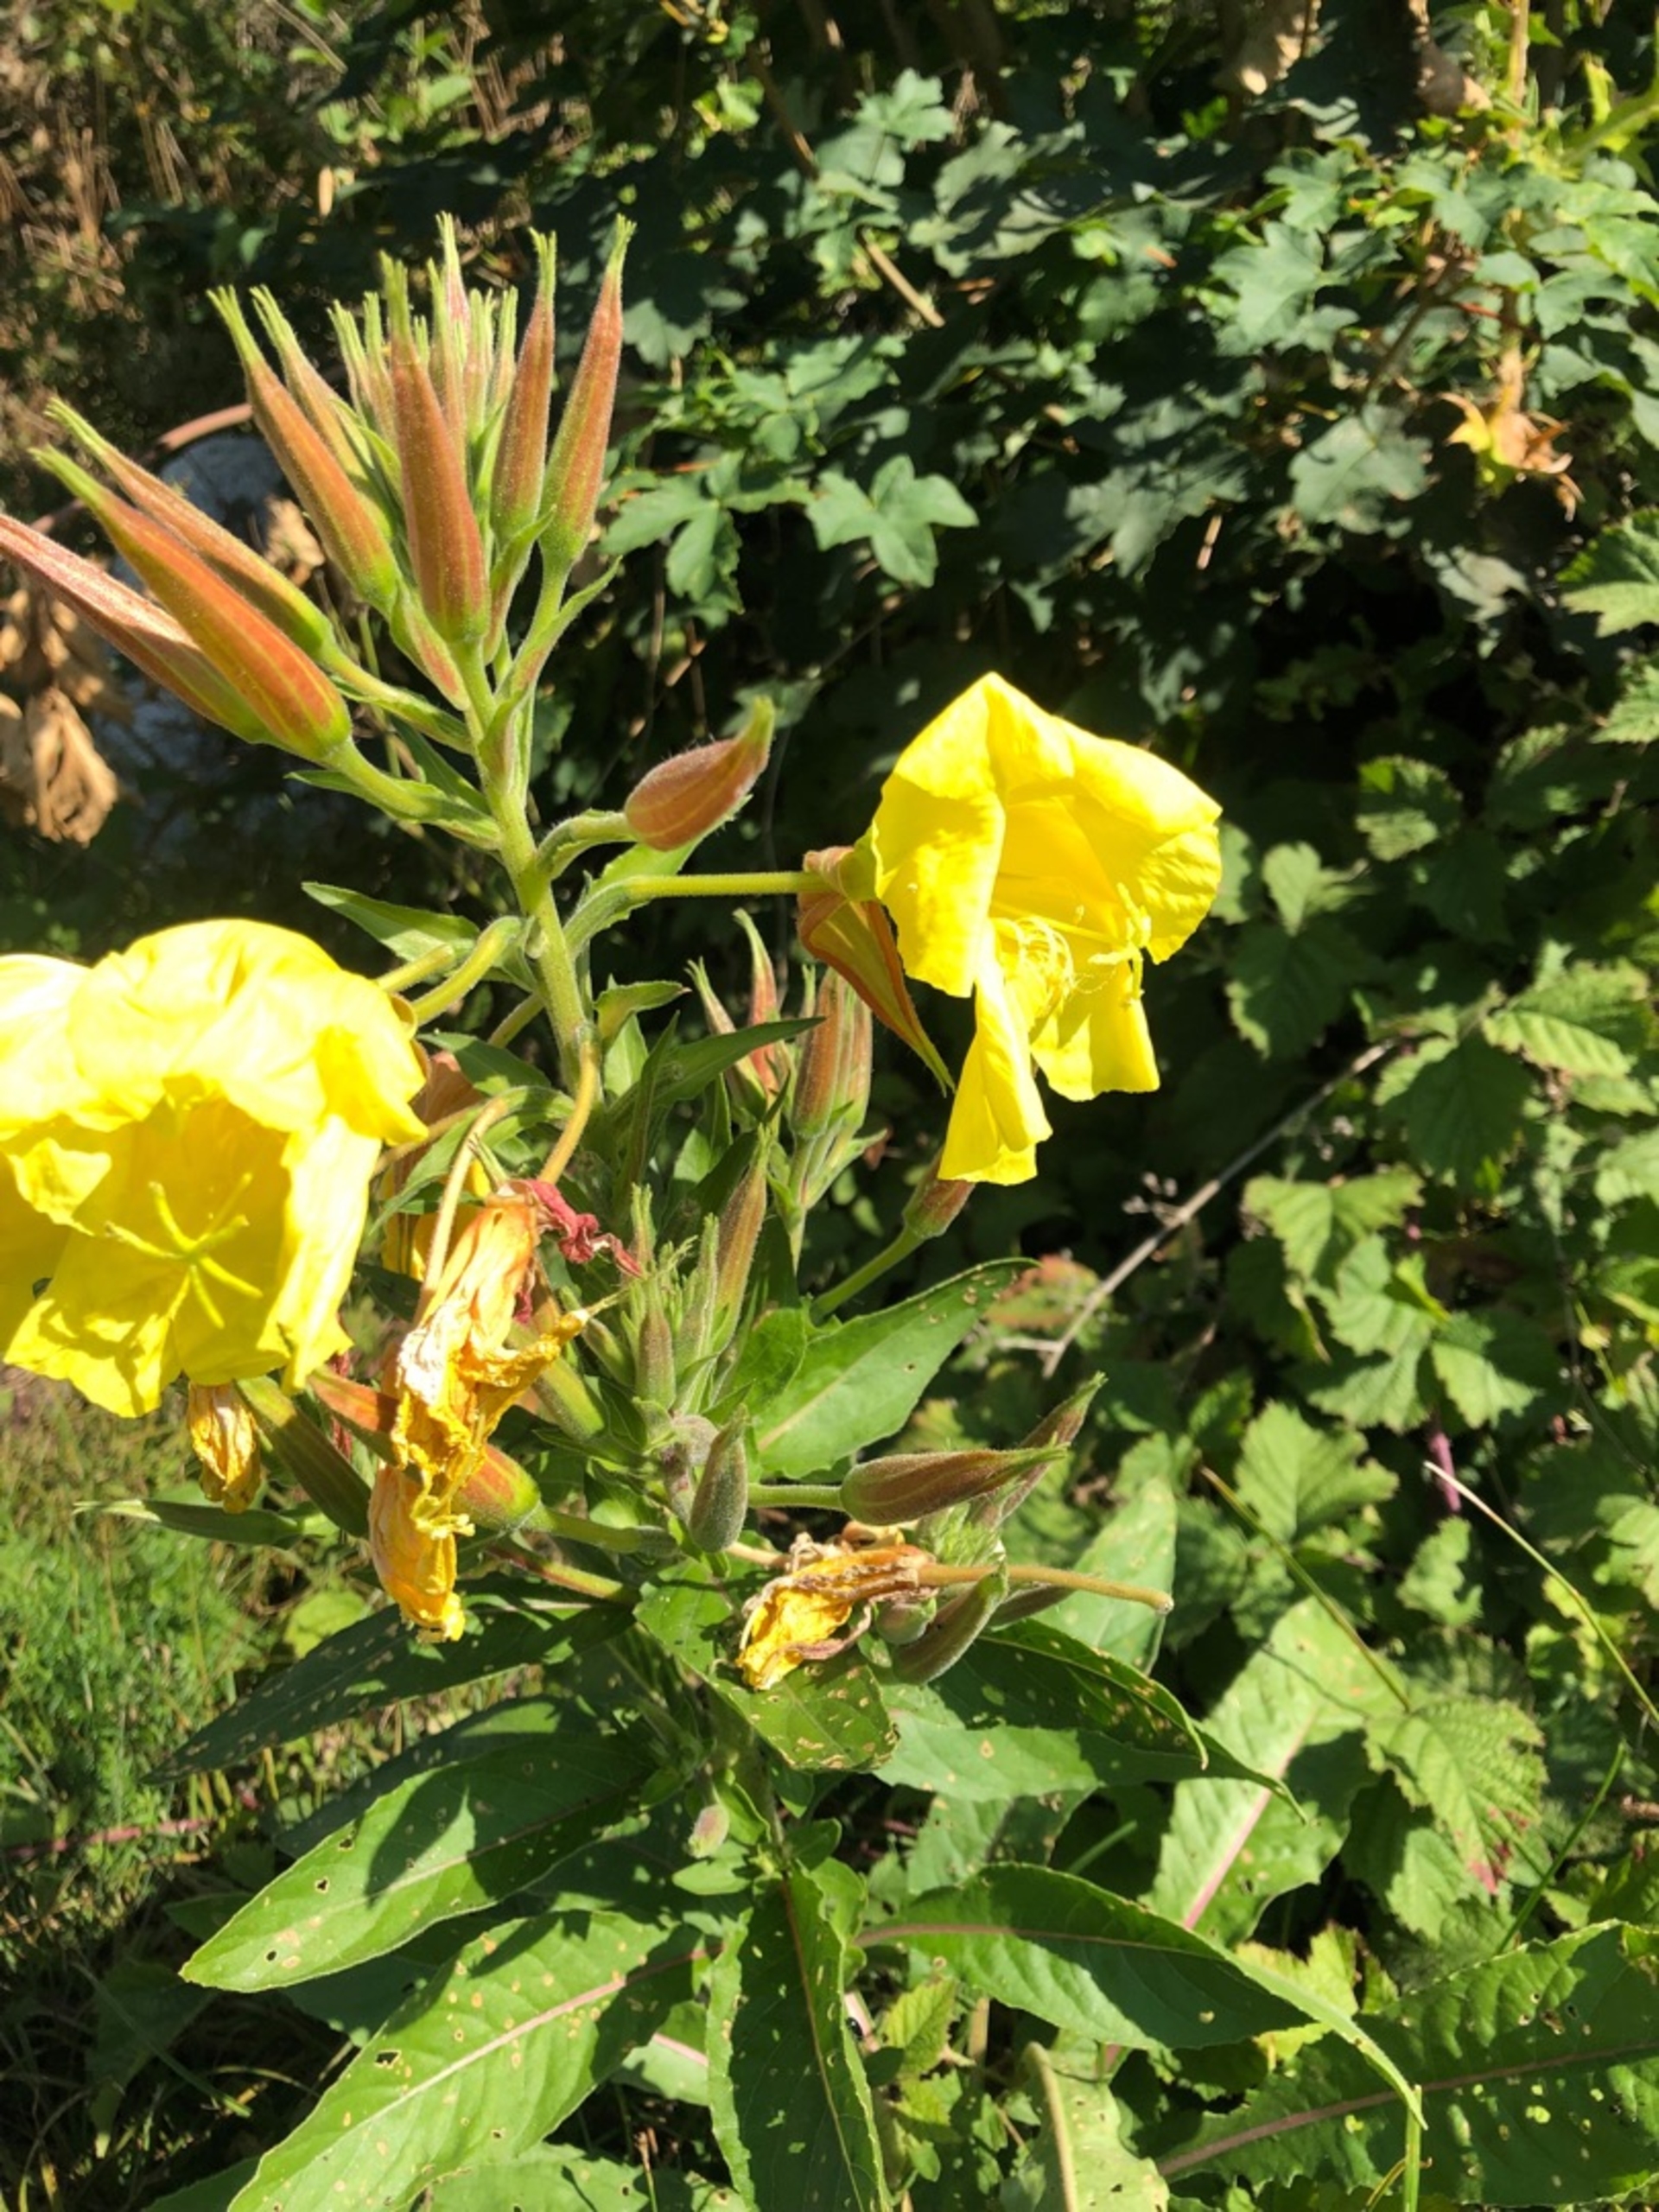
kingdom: Plantae
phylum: Tracheophyta
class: Magnoliopsida
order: Myrtales
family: Onagraceae
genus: Oenothera
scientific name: Oenothera glazioviana
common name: Kæmpe-natlys
